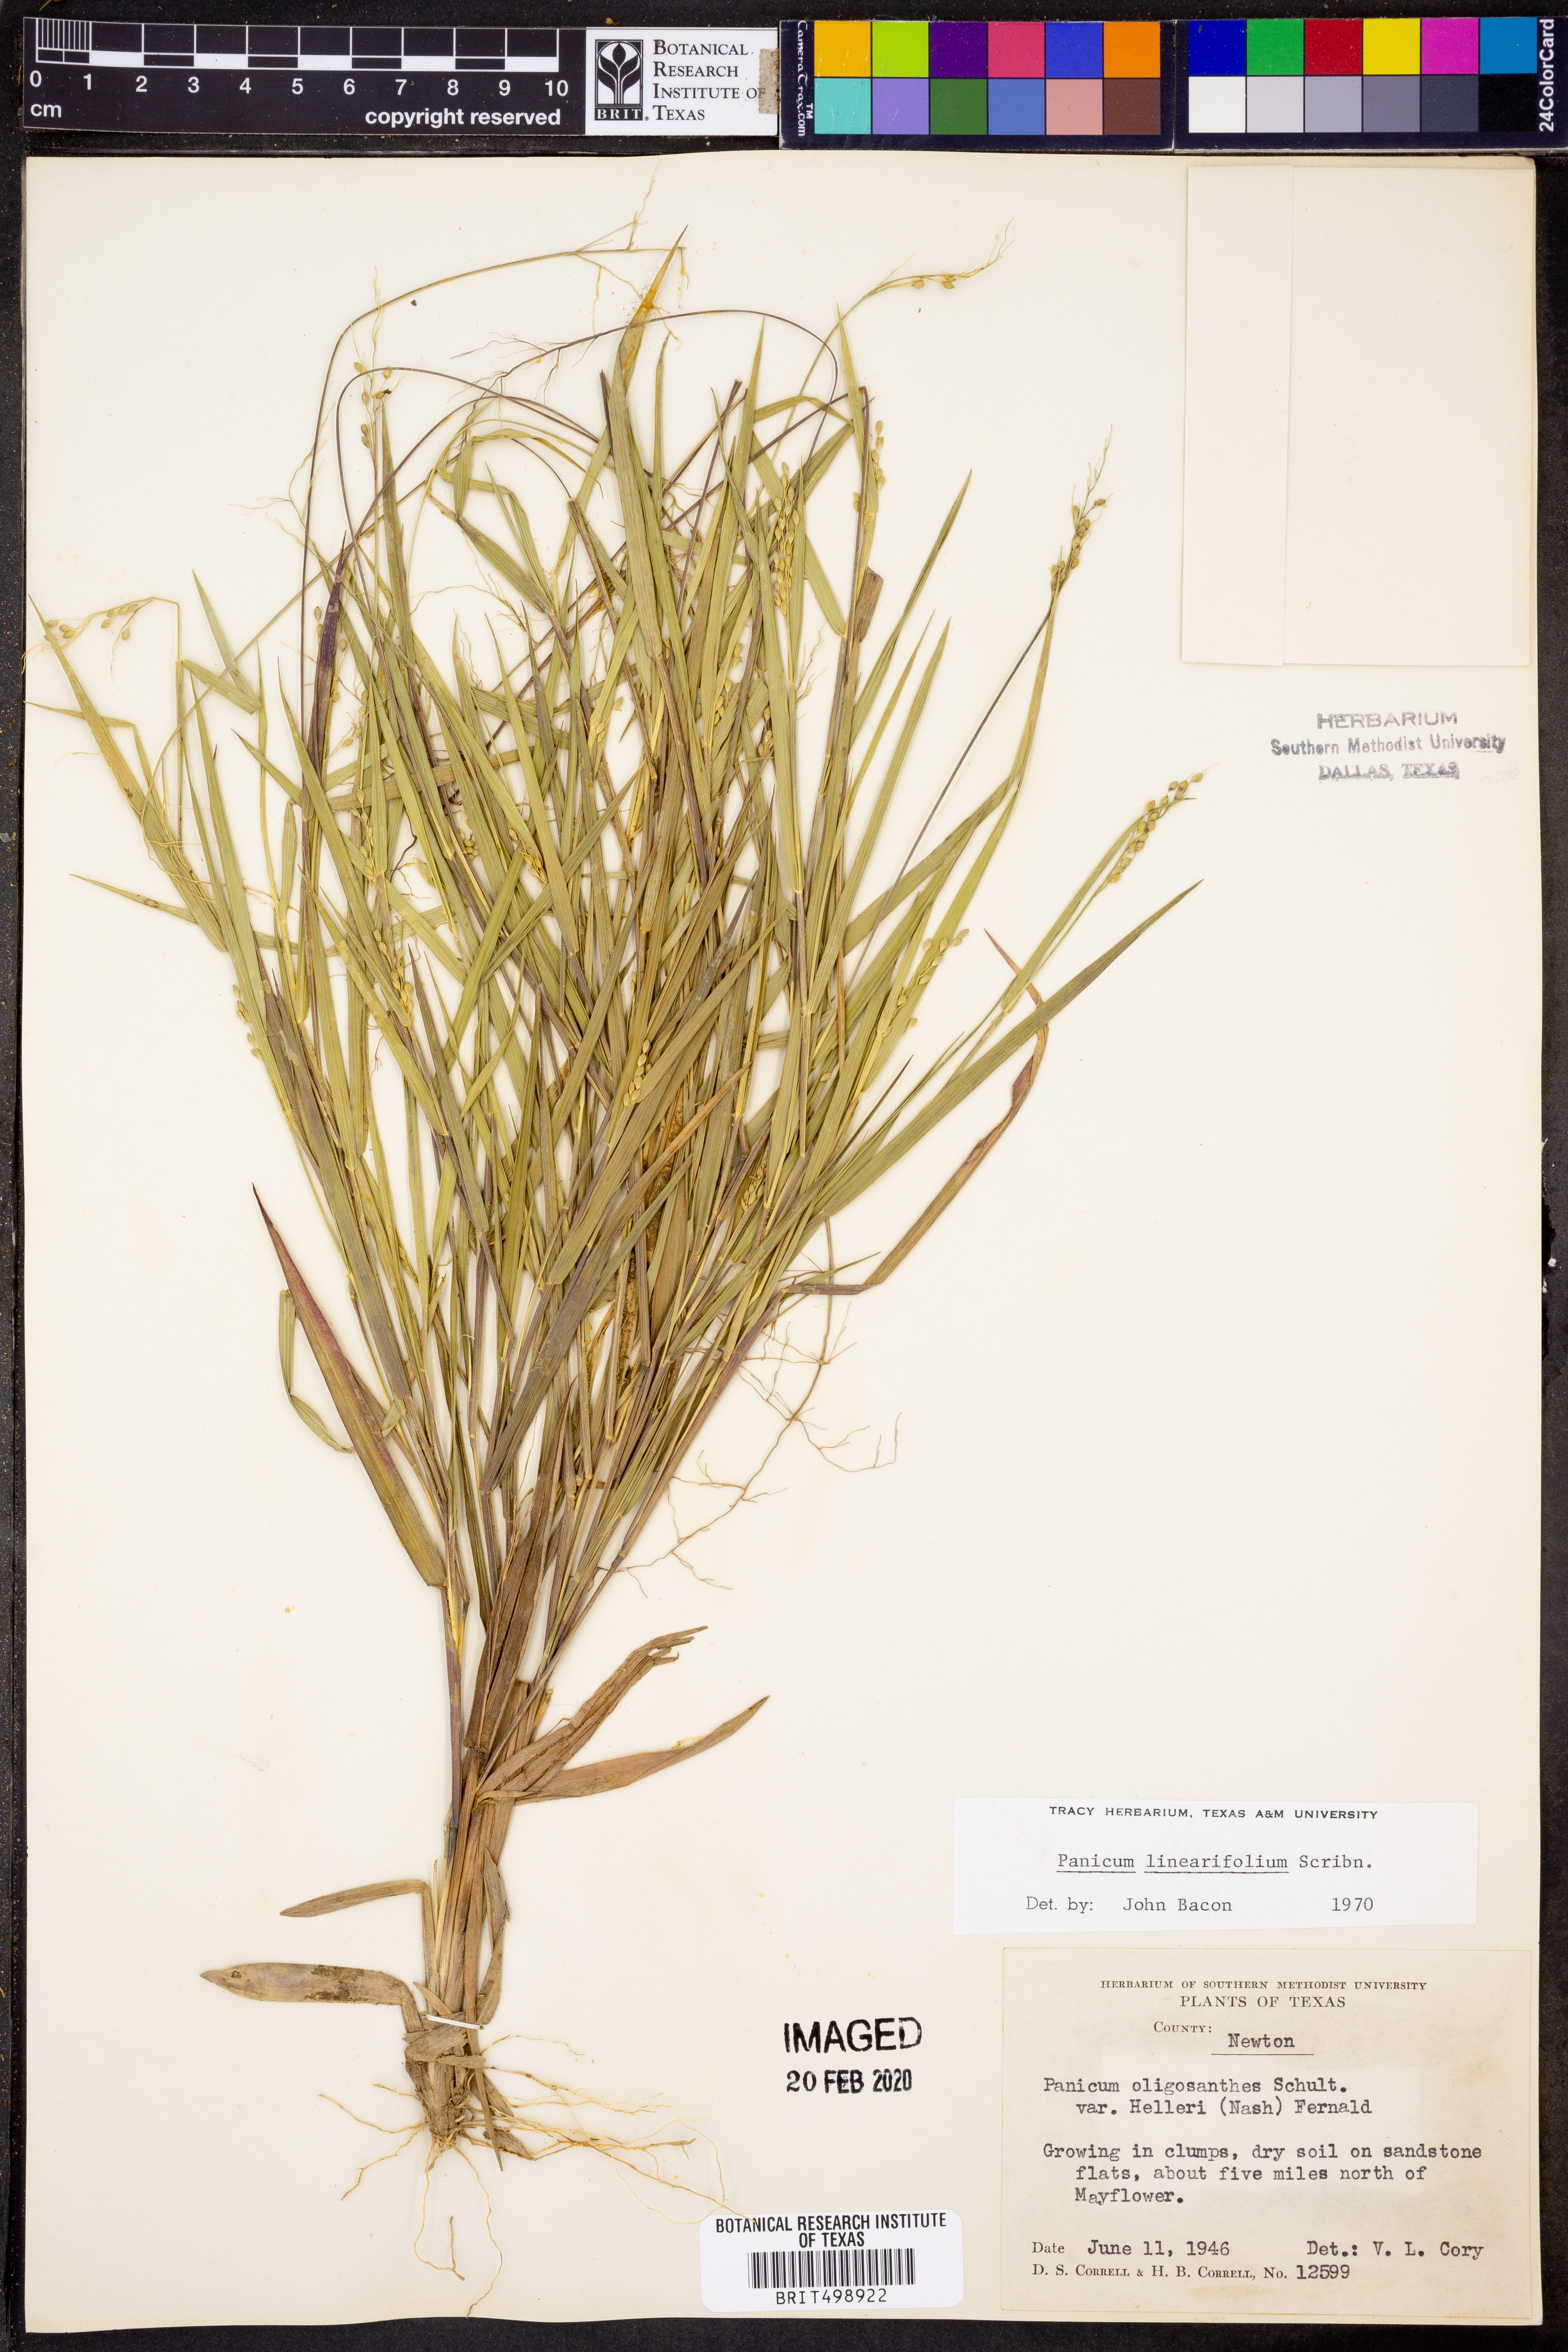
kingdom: Plantae
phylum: Tracheophyta
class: Liliopsida
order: Poales
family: Poaceae
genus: Dichanthelium
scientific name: Dichanthelium linearifolium
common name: Linear-leaved panicgrass
